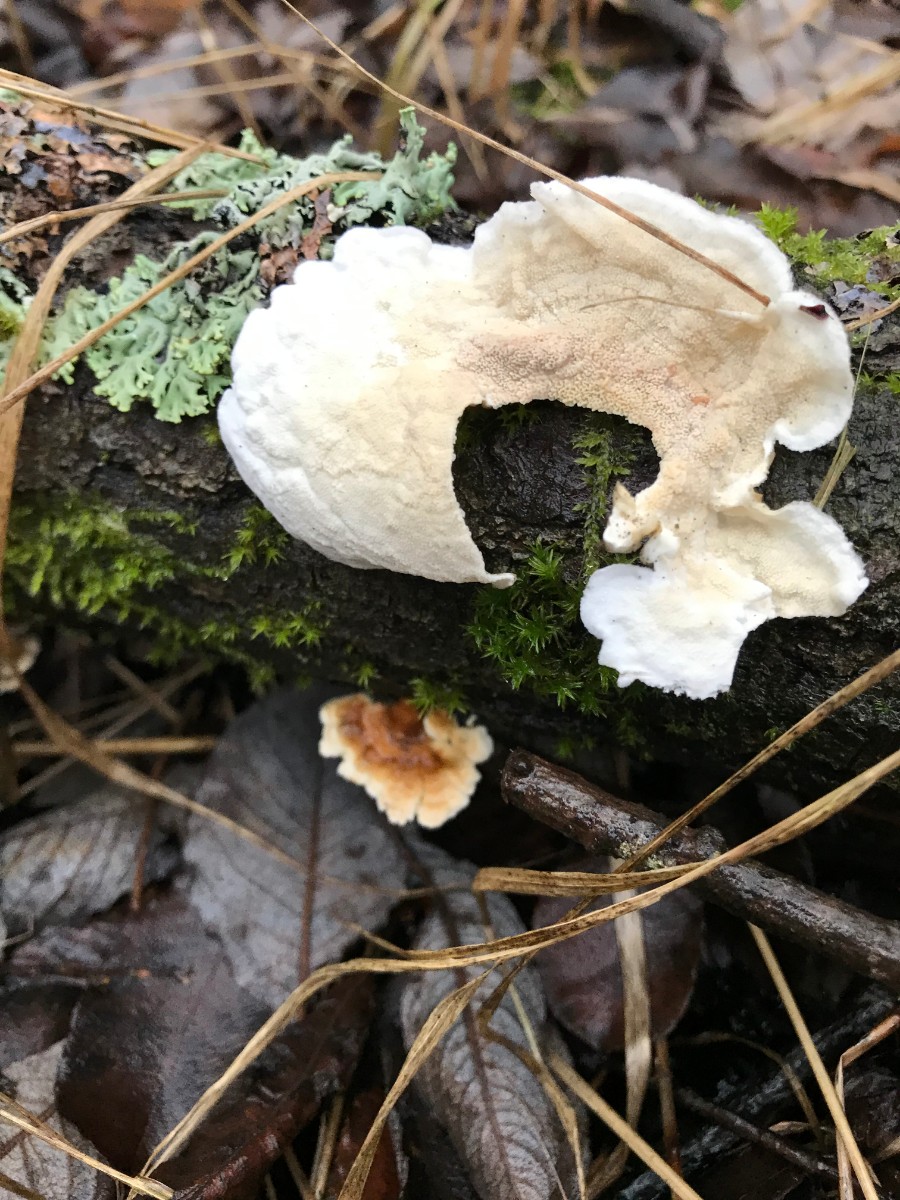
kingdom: Fungi
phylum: Basidiomycota
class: Agaricomycetes
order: Polyporales
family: Irpicaceae
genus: Byssomerulius
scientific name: Byssomerulius corium
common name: læder-åresvamp
